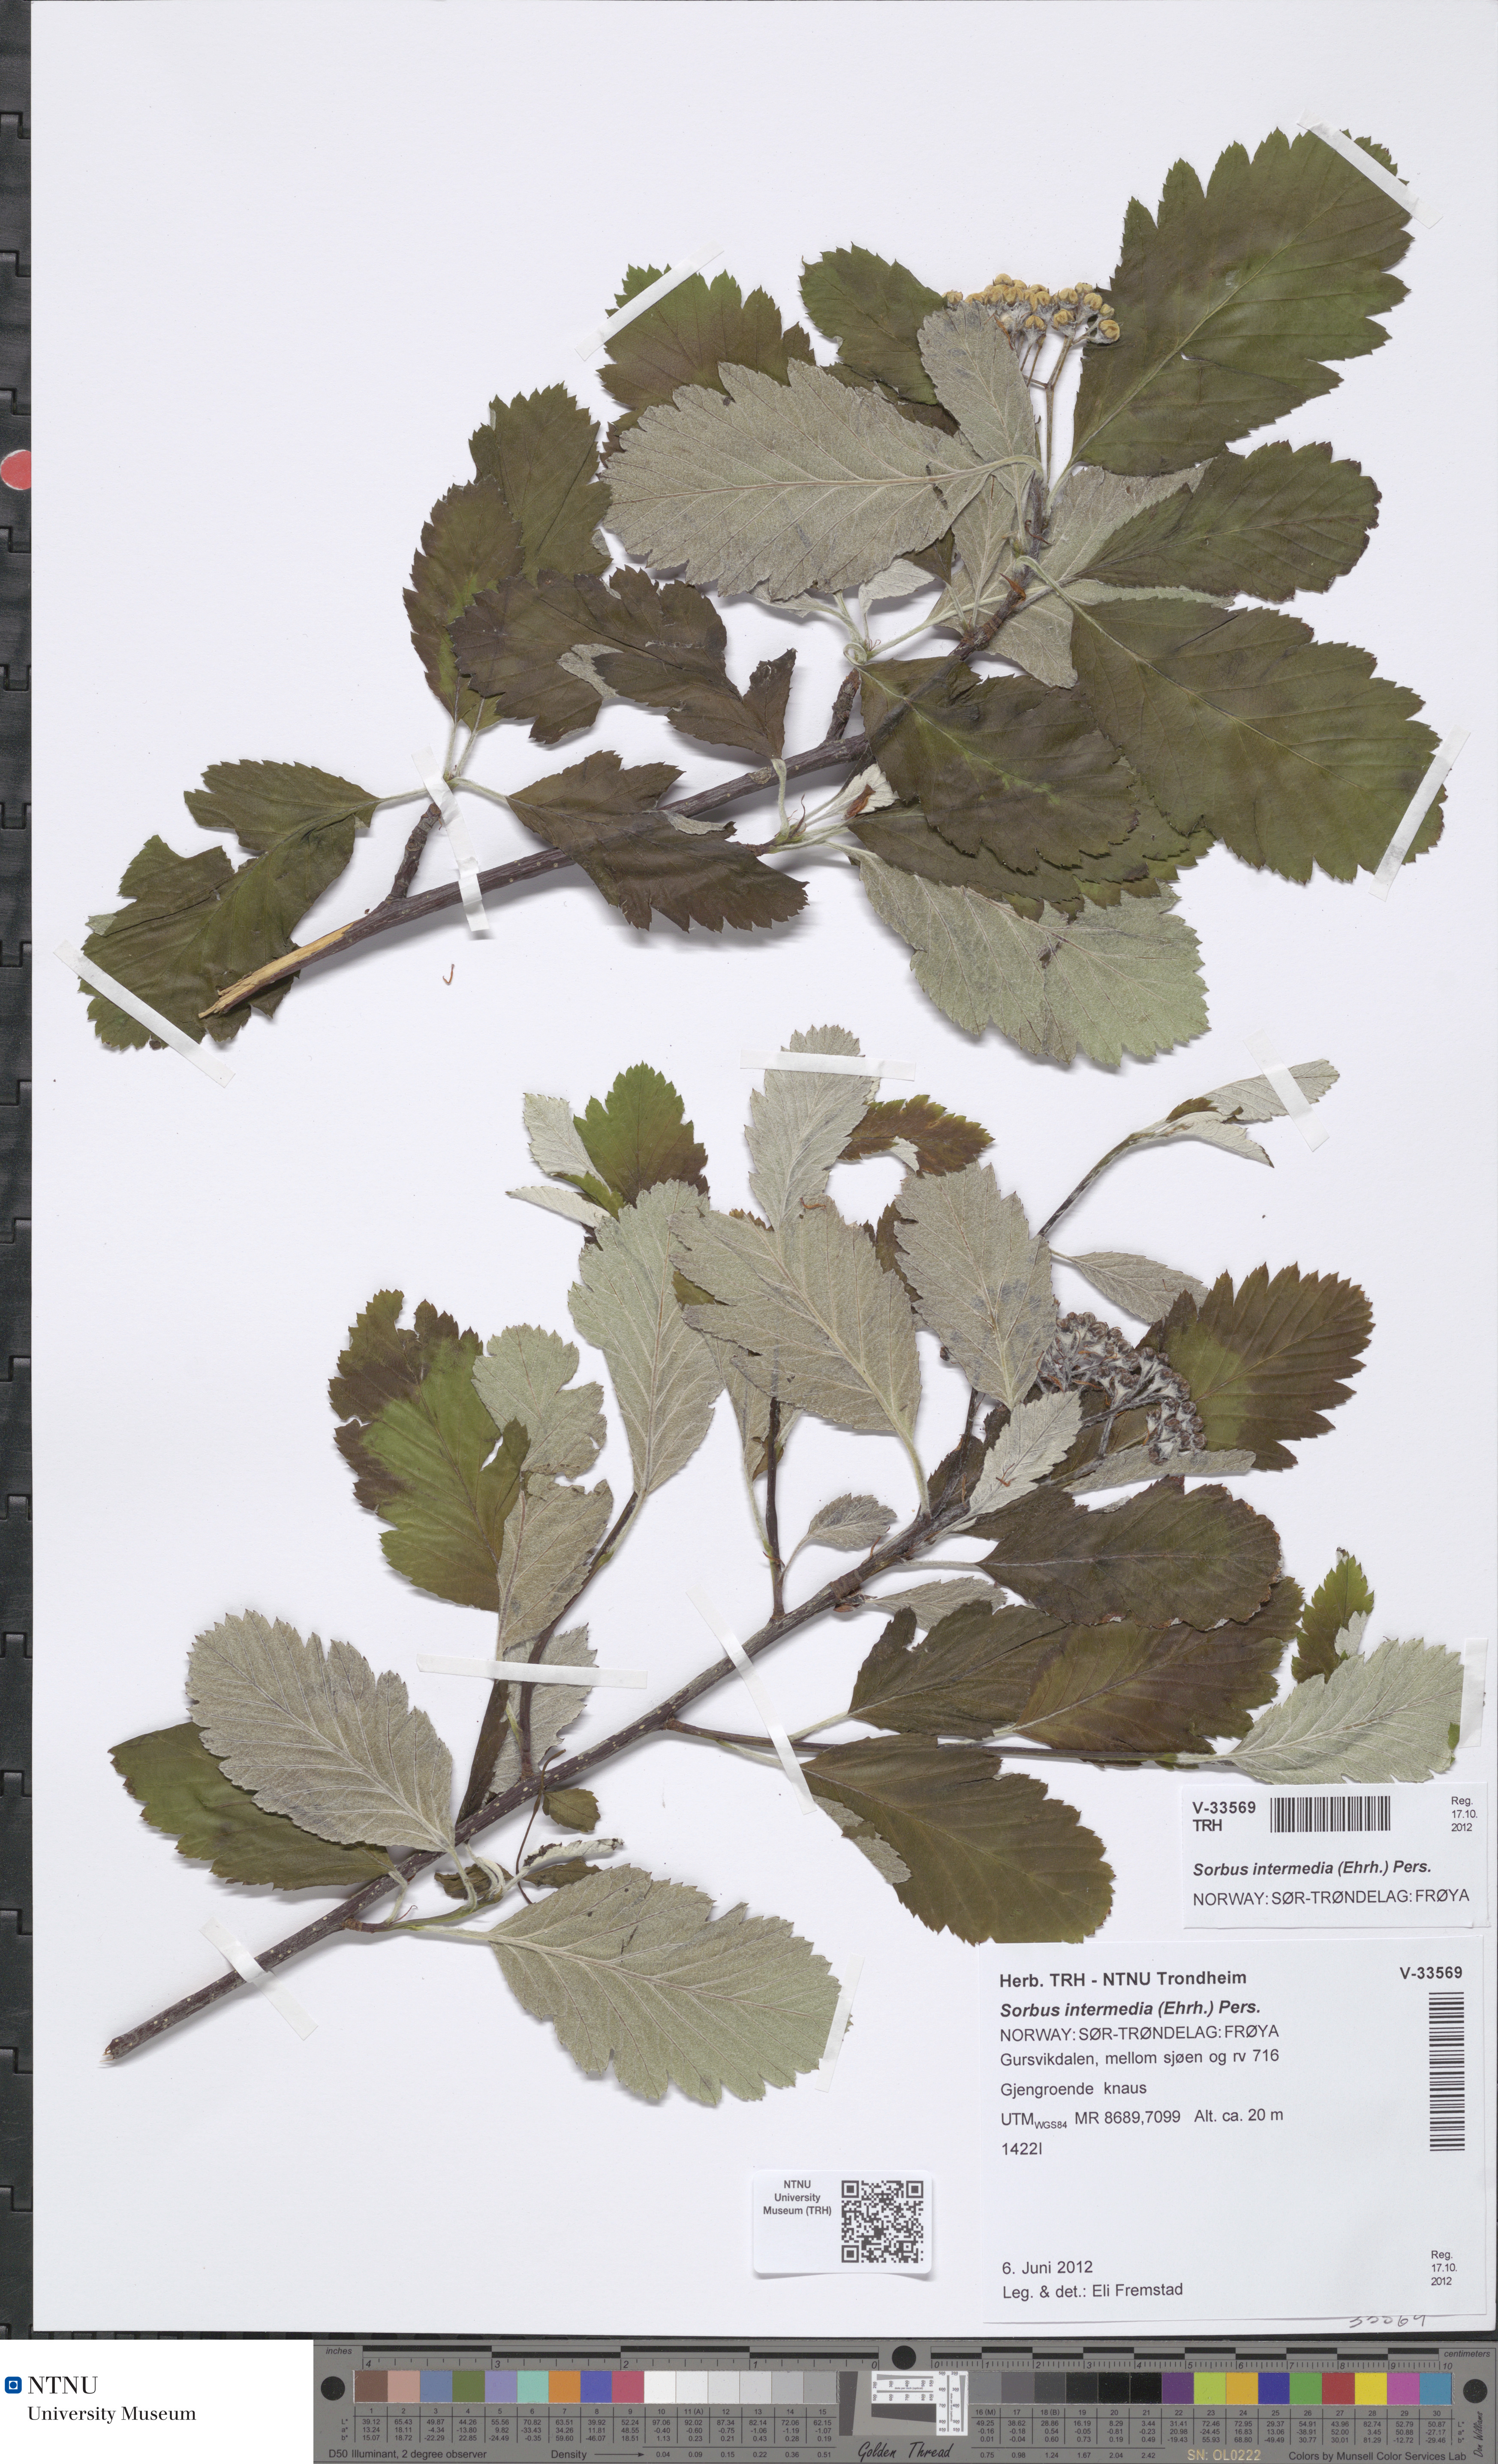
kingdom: Plantae
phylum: Tracheophyta
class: Magnoliopsida
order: Rosales
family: Rosaceae
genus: Scandosorbus
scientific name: Scandosorbus intermedia
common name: Swedish whitebeam
